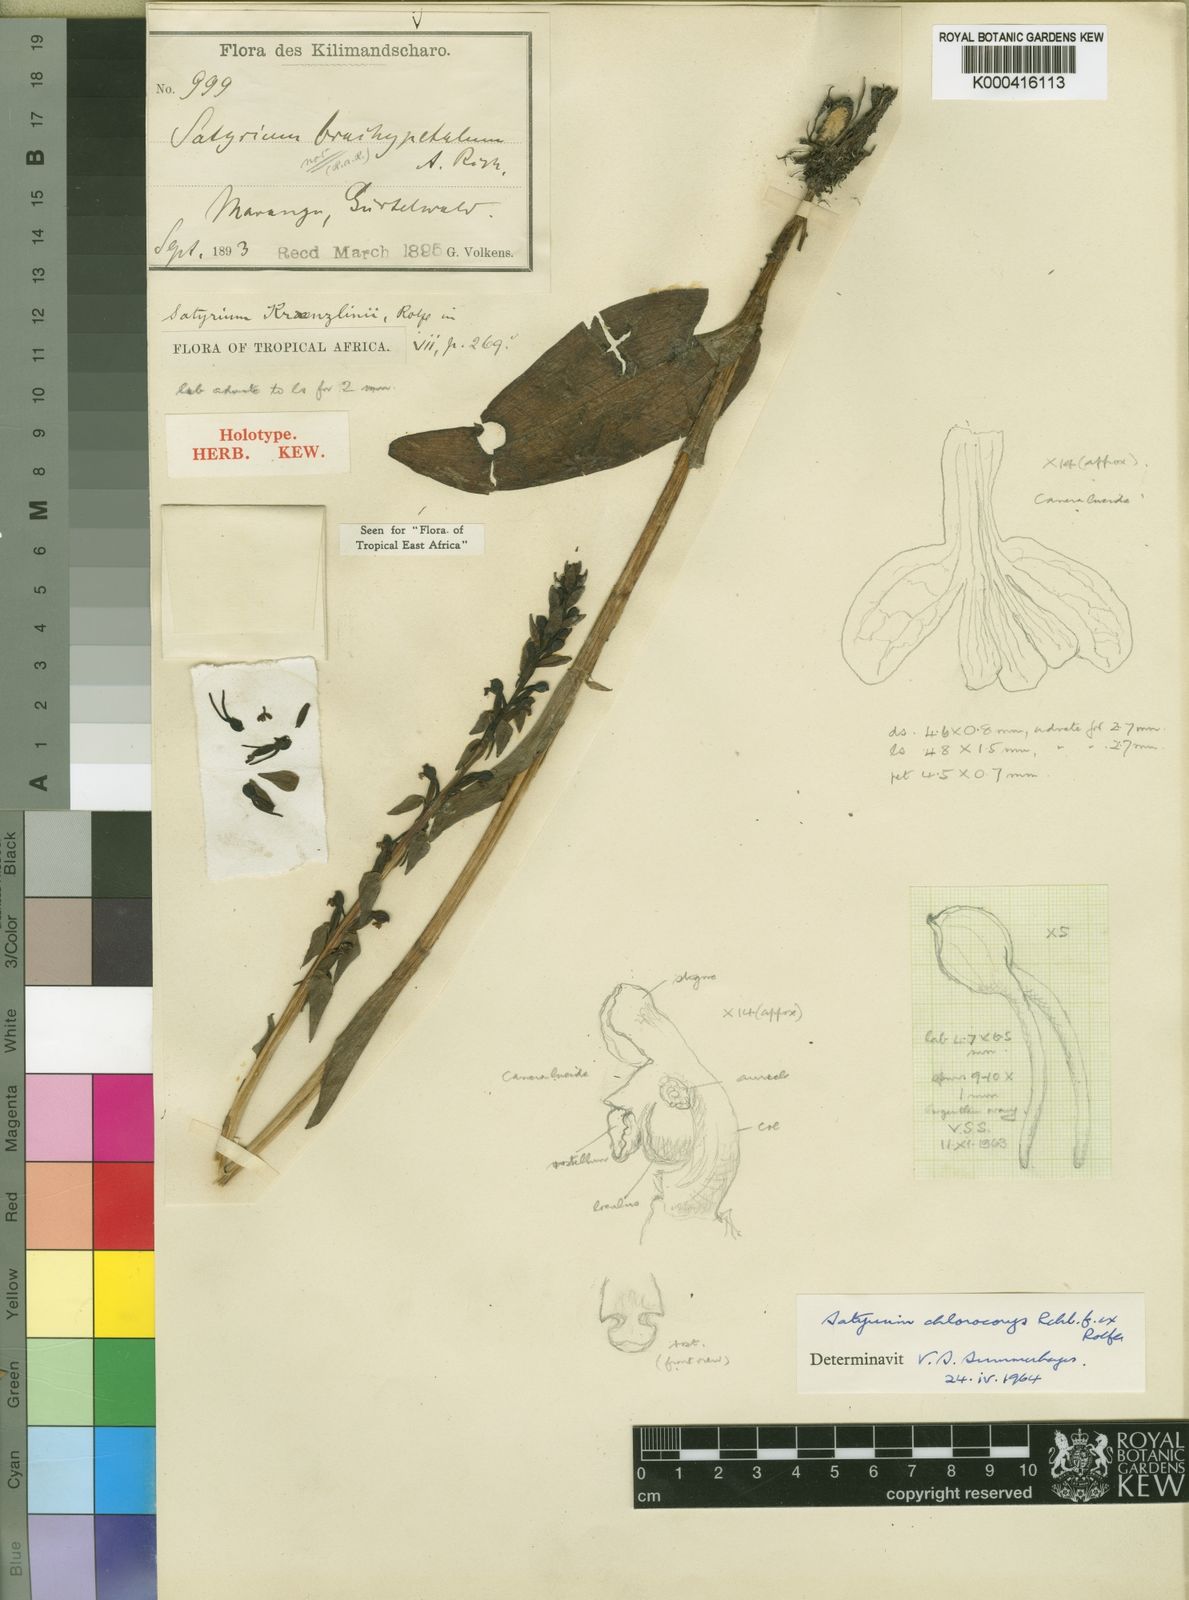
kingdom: Plantae
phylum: Tracheophyta
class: Liliopsida
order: Asparagales
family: Orchidaceae
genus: Satyrium
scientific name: Satyrium chlorocorys
